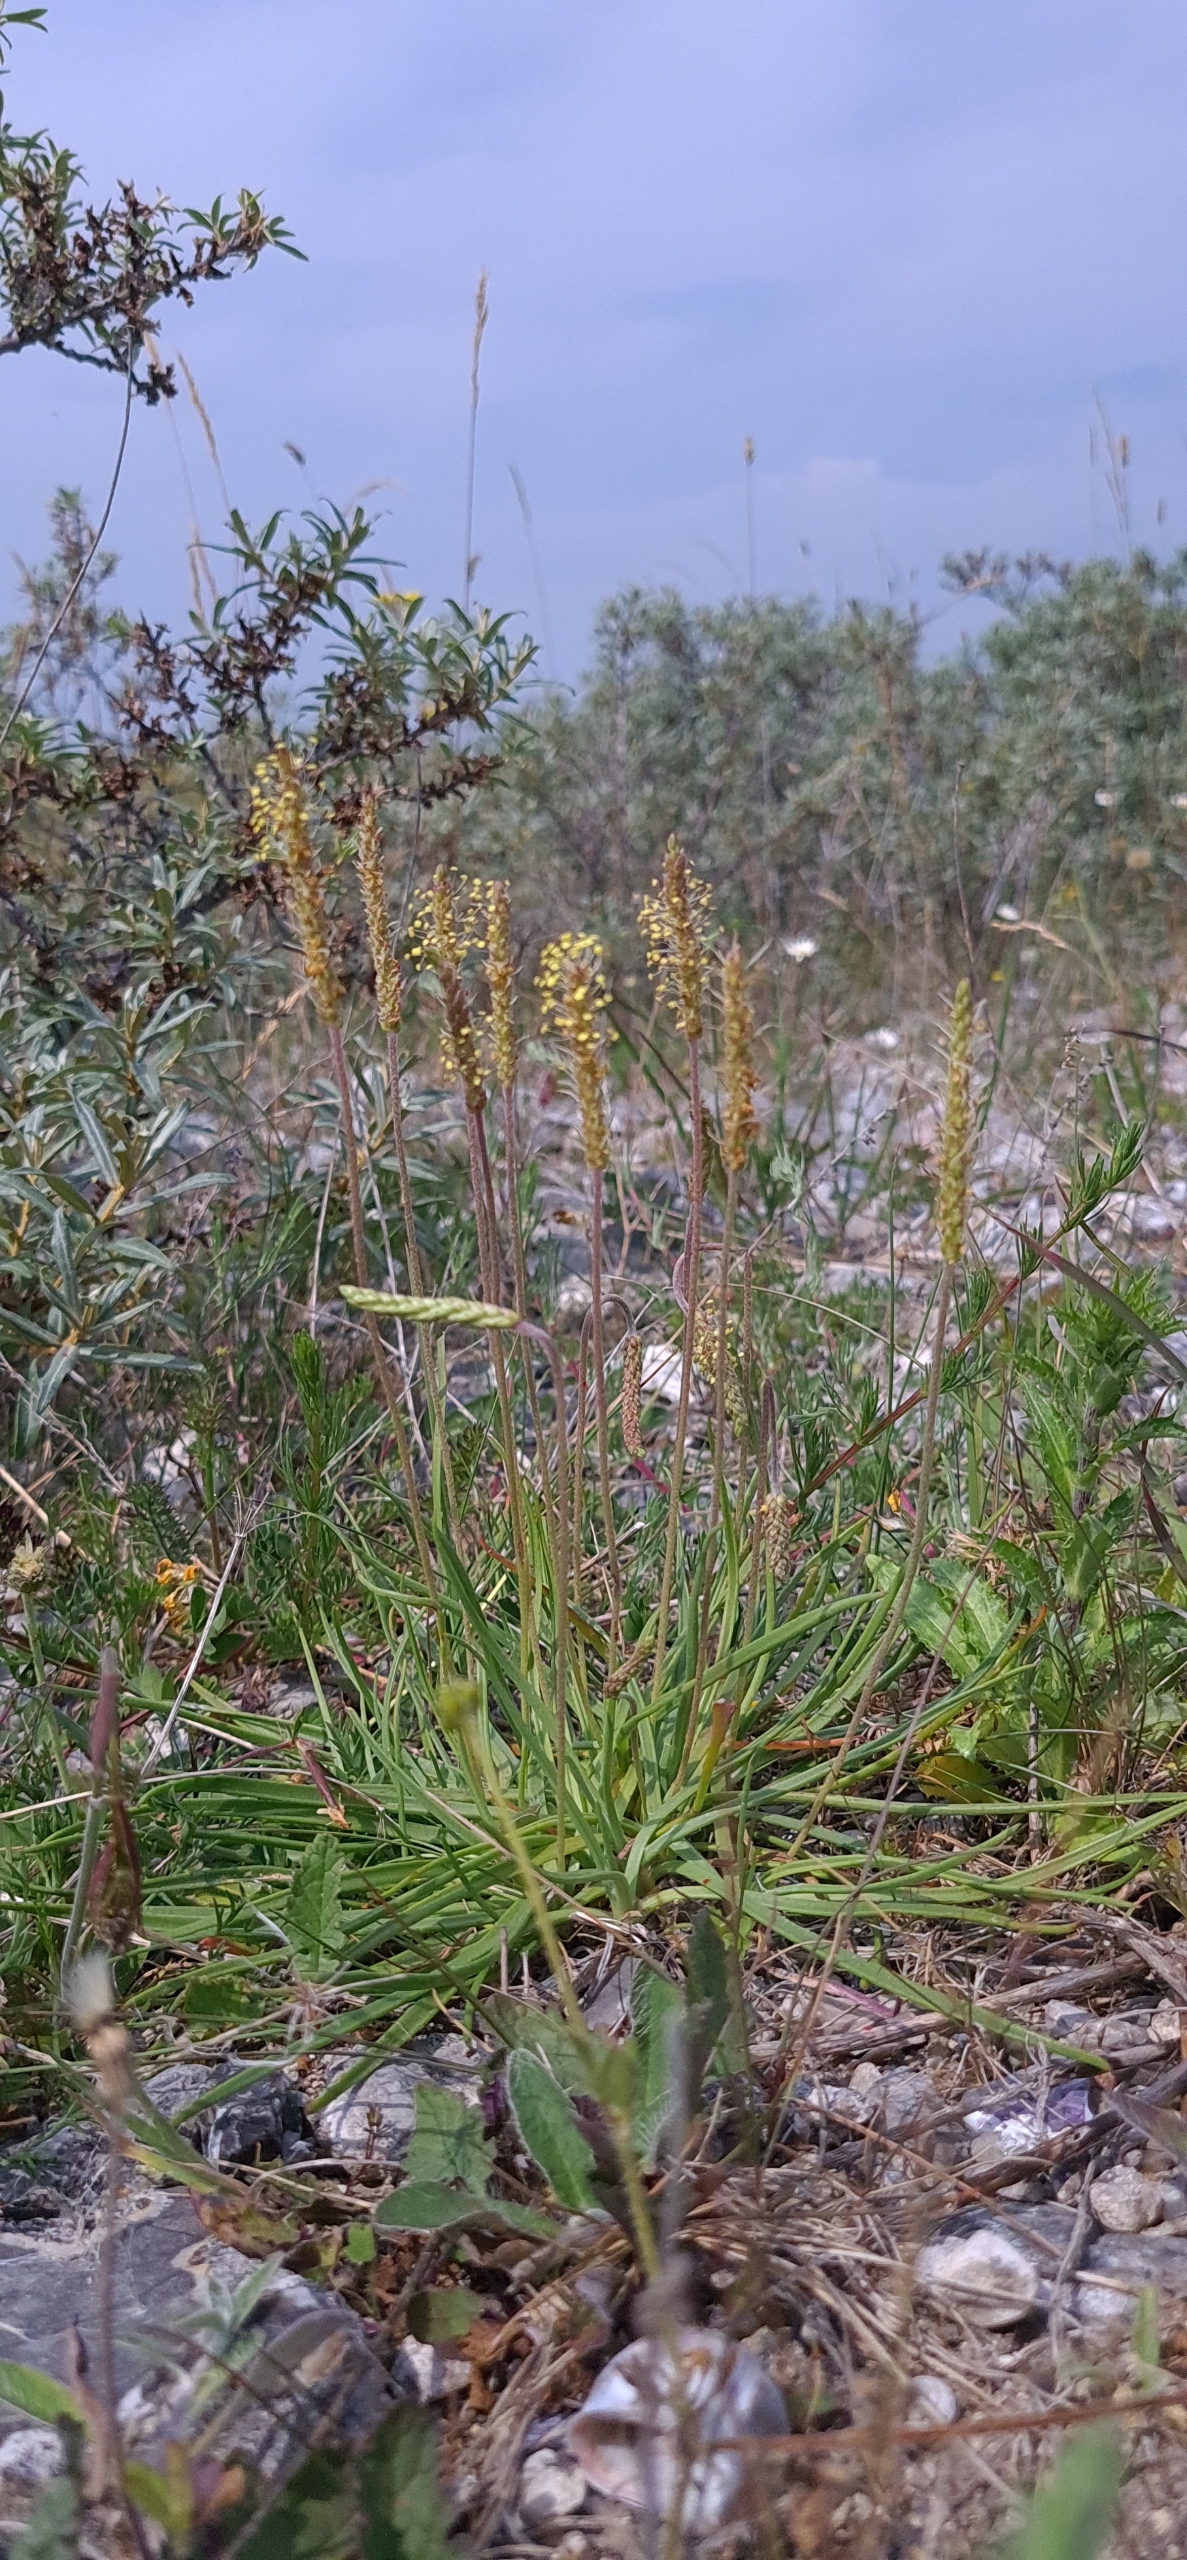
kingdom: Plantae
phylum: Tracheophyta
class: Magnoliopsida
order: Lamiales
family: Plantaginaceae
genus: Plantago
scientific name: Plantago maritima
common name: Strand-vejbred
